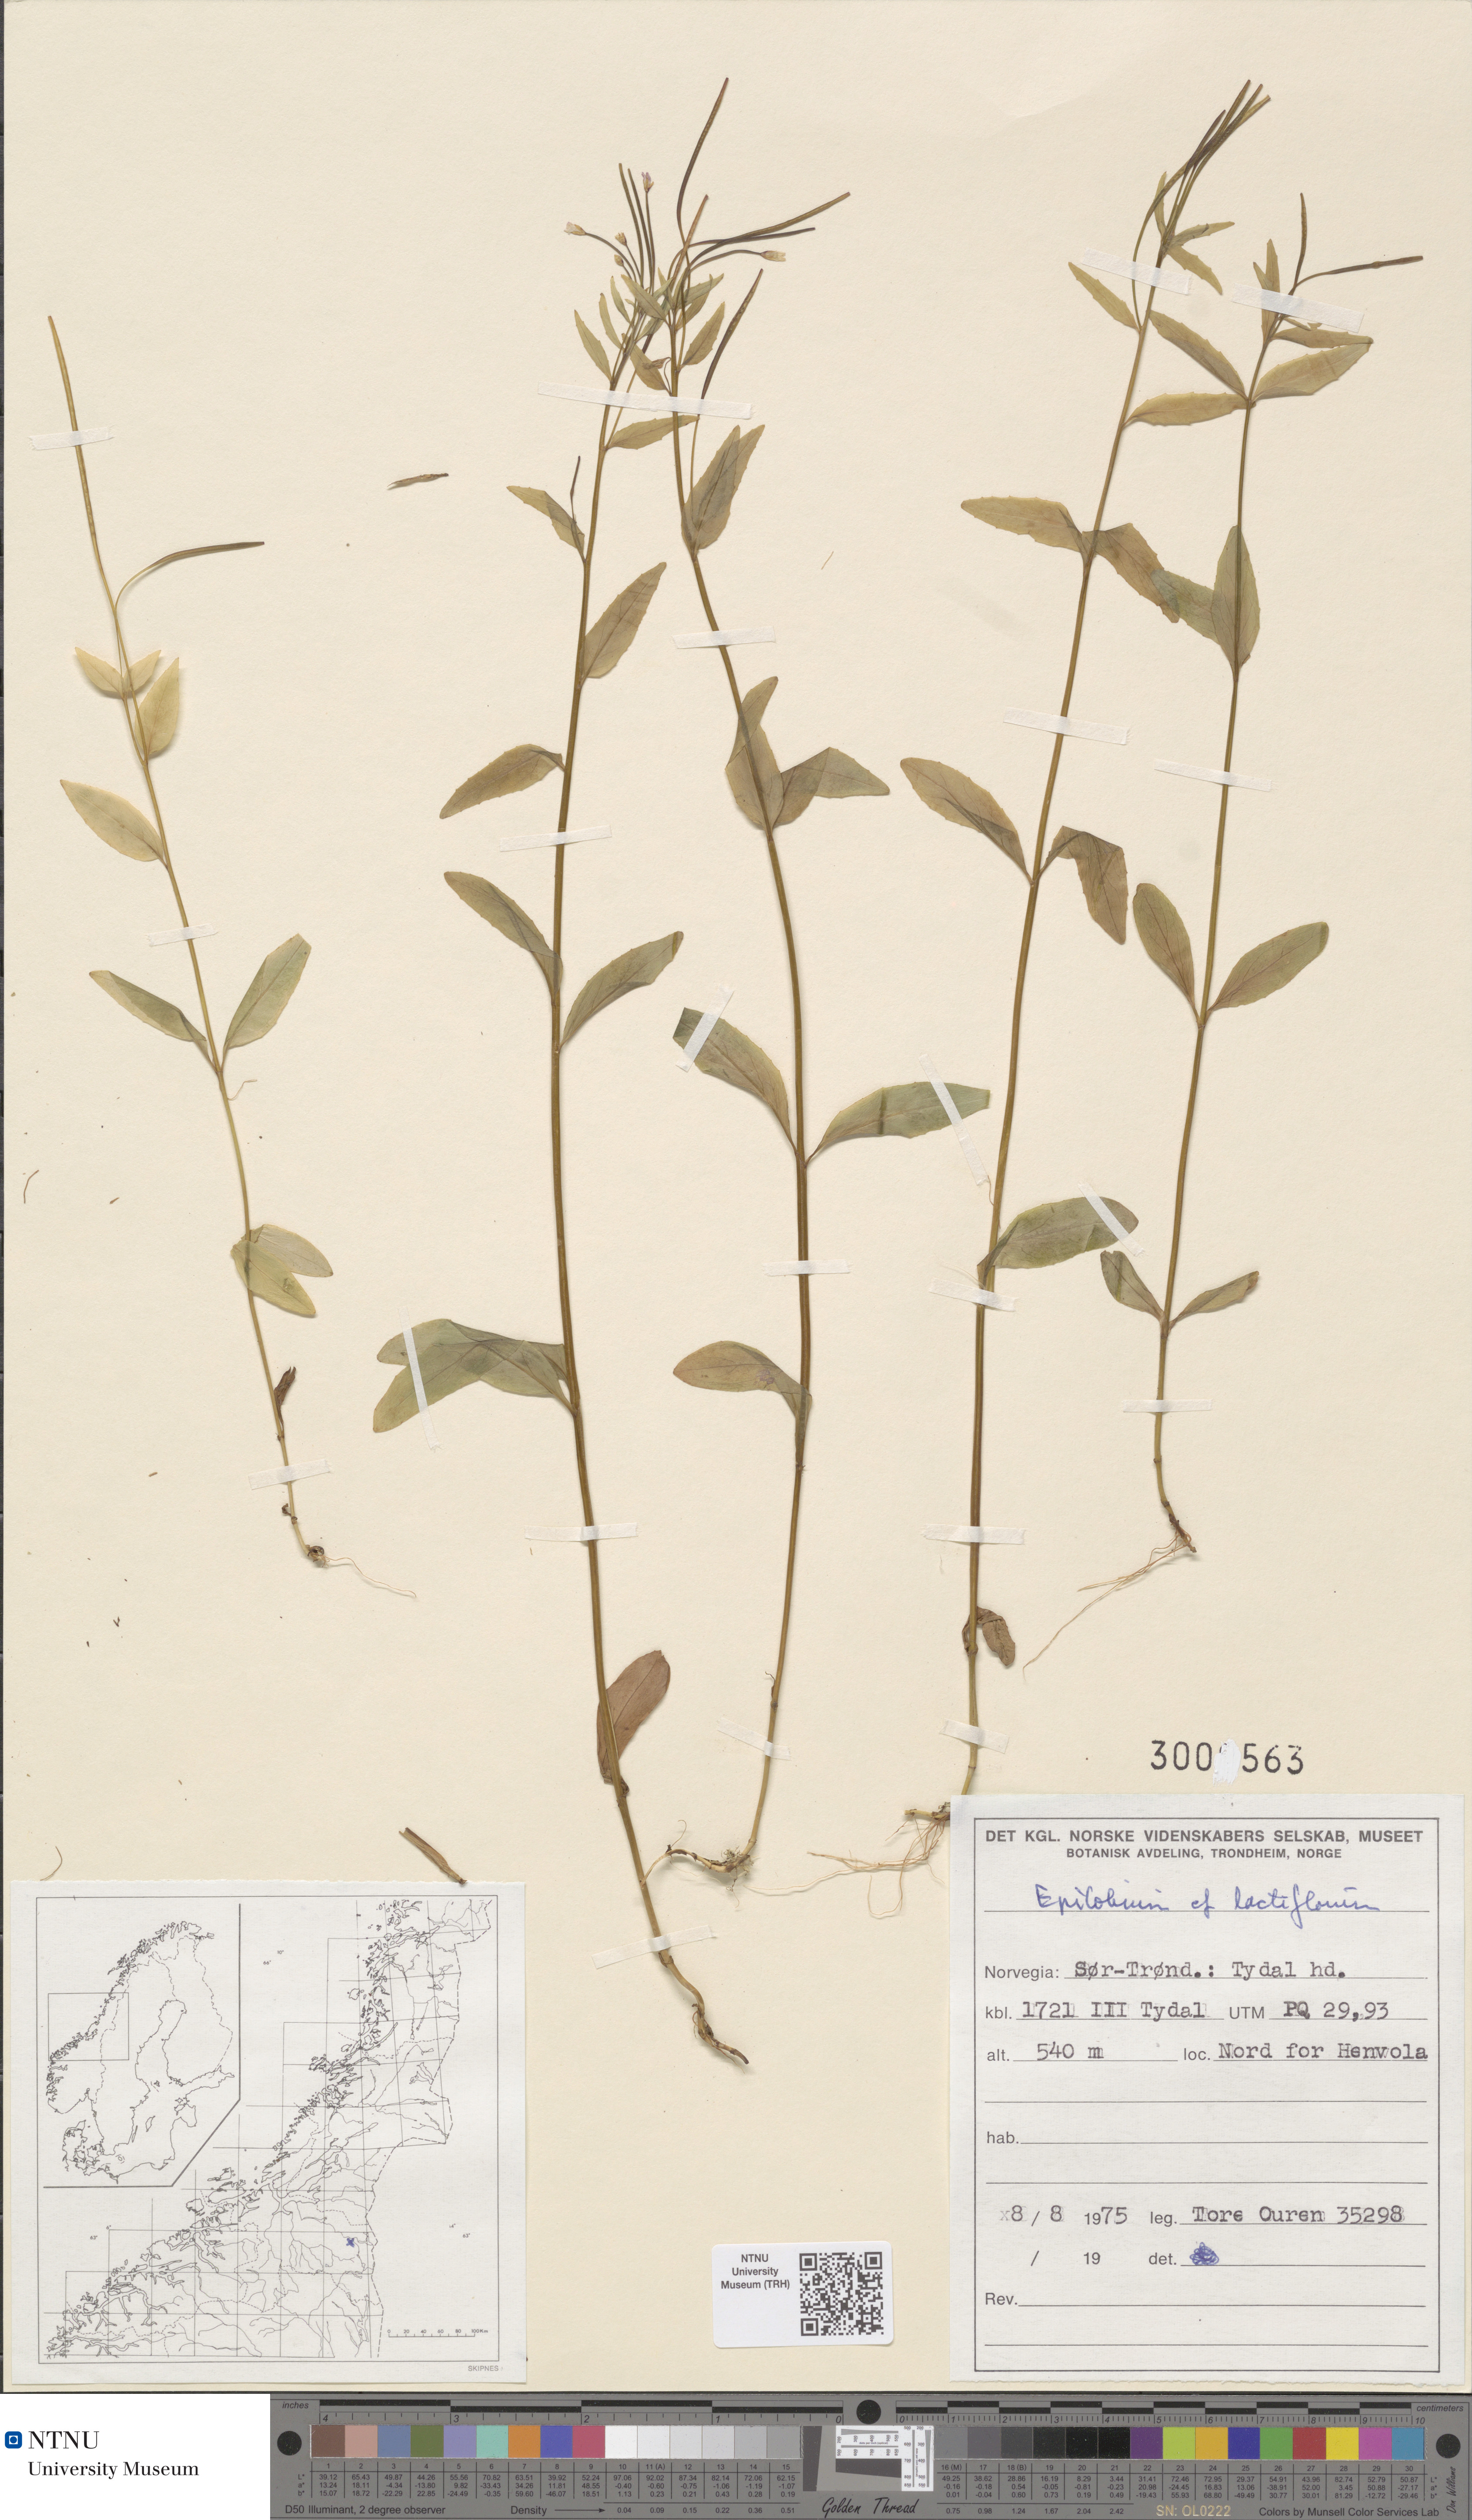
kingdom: Plantae
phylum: Tracheophyta
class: Magnoliopsida
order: Myrtales
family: Onagraceae
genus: Epilobium
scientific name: Epilobium lactiflorum
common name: Milkflower willowherb
